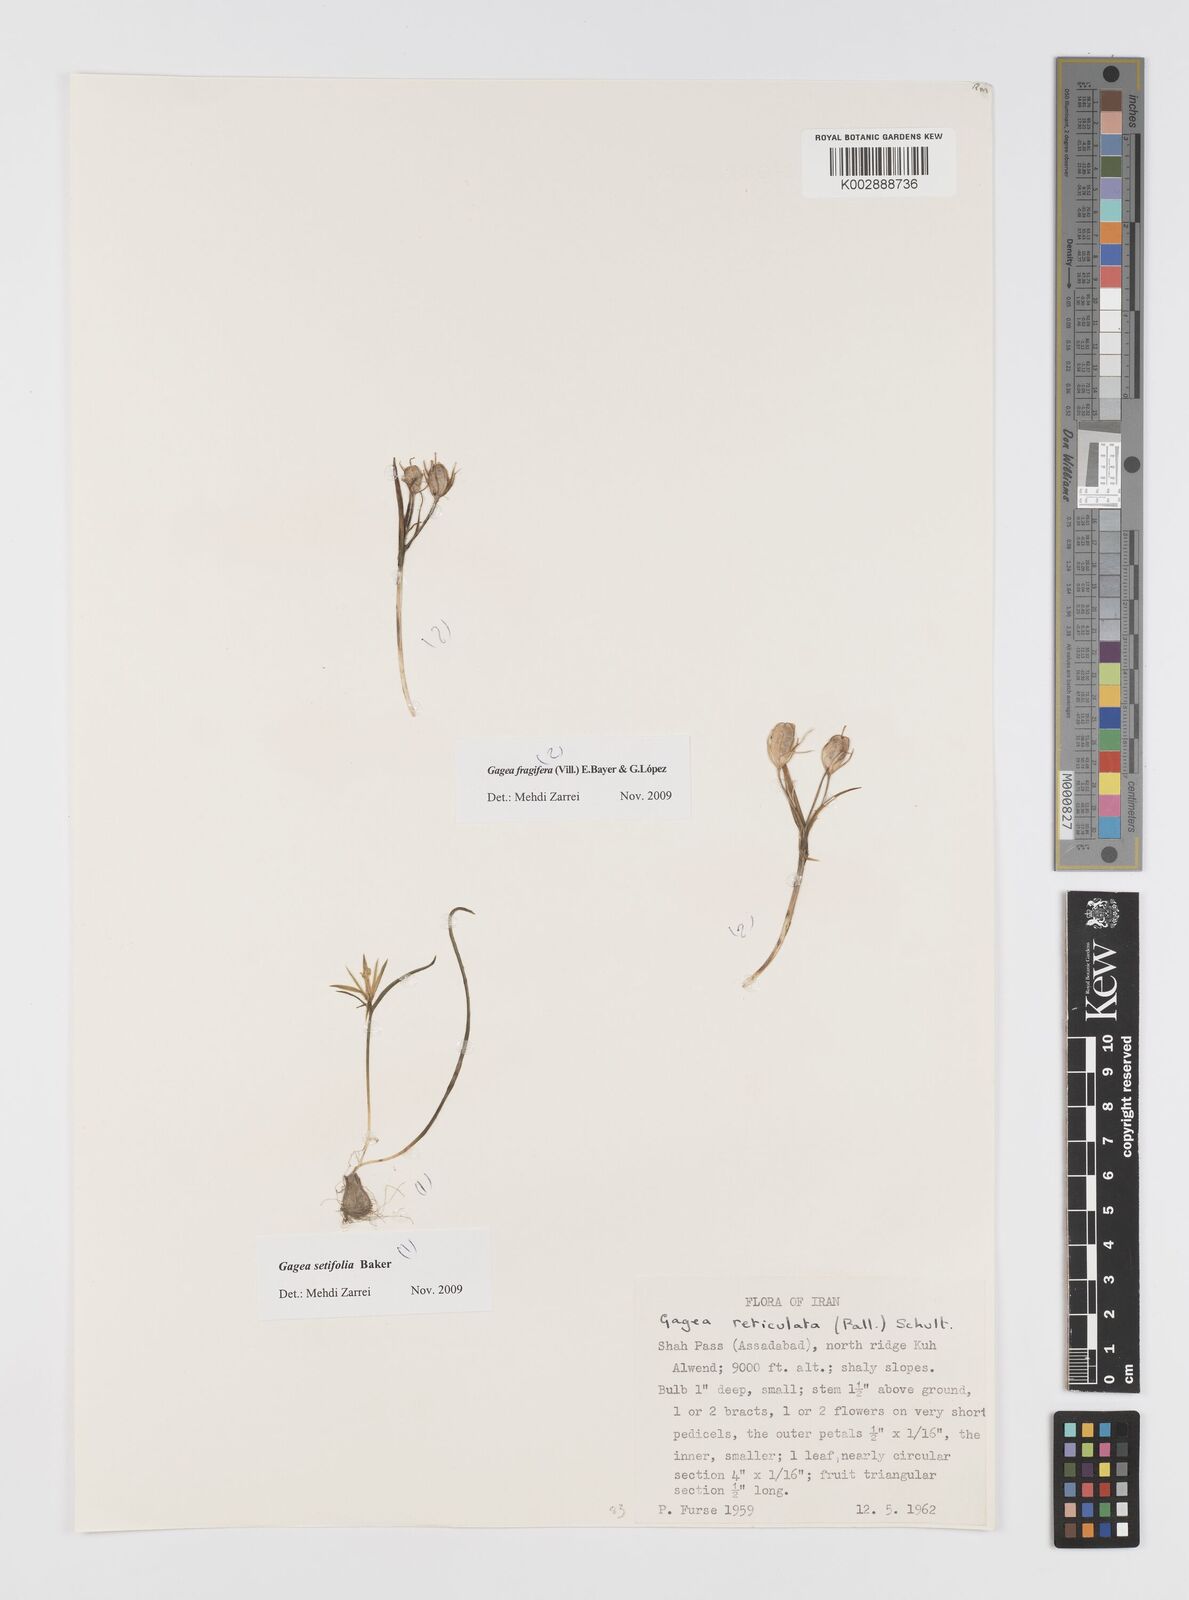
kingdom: Plantae
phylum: Tracheophyta
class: Liliopsida
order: Liliales
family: Liliaceae
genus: Gagea
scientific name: Gagea fragifera
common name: Lily
